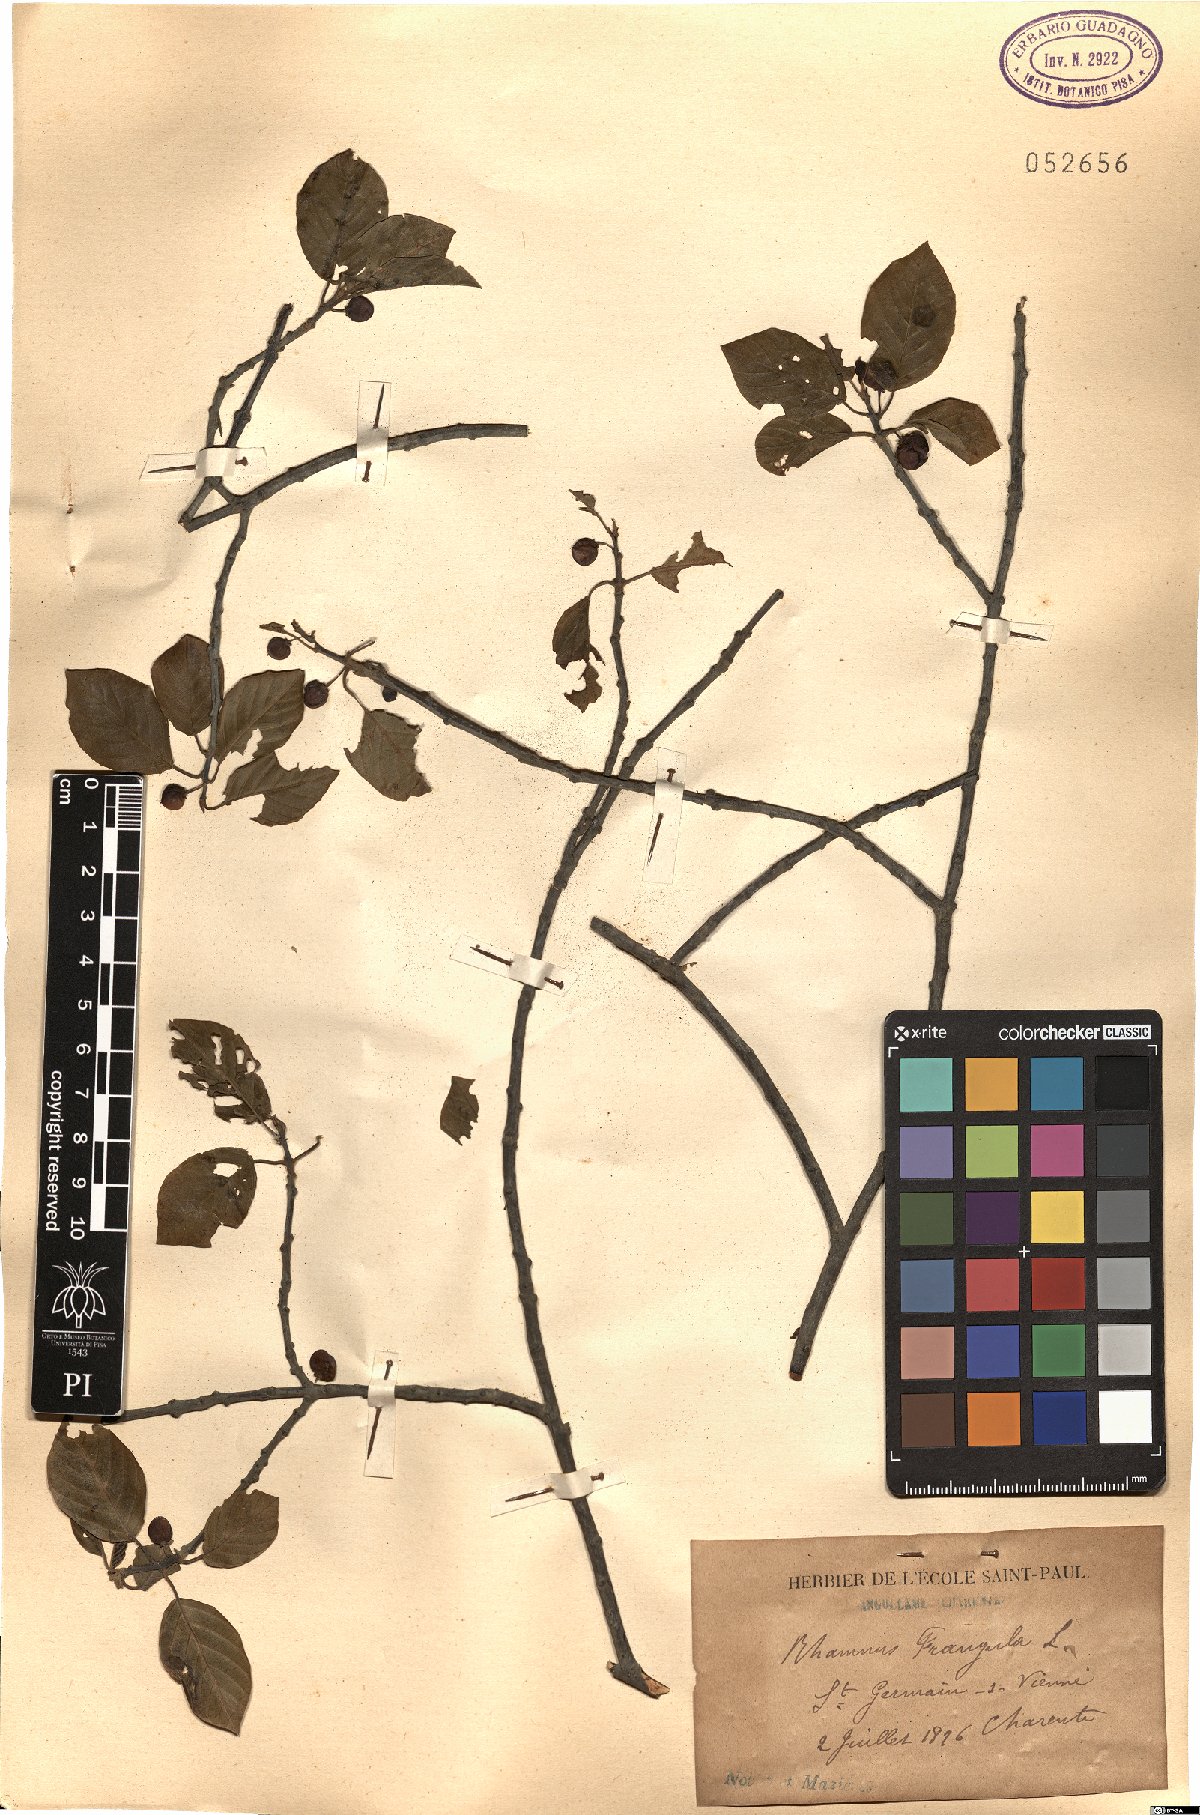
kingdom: Plantae
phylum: Tracheophyta
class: Magnoliopsida
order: Rosales
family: Rhamnaceae
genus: Frangula
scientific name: Frangula alnus
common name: Alder buckthorn
